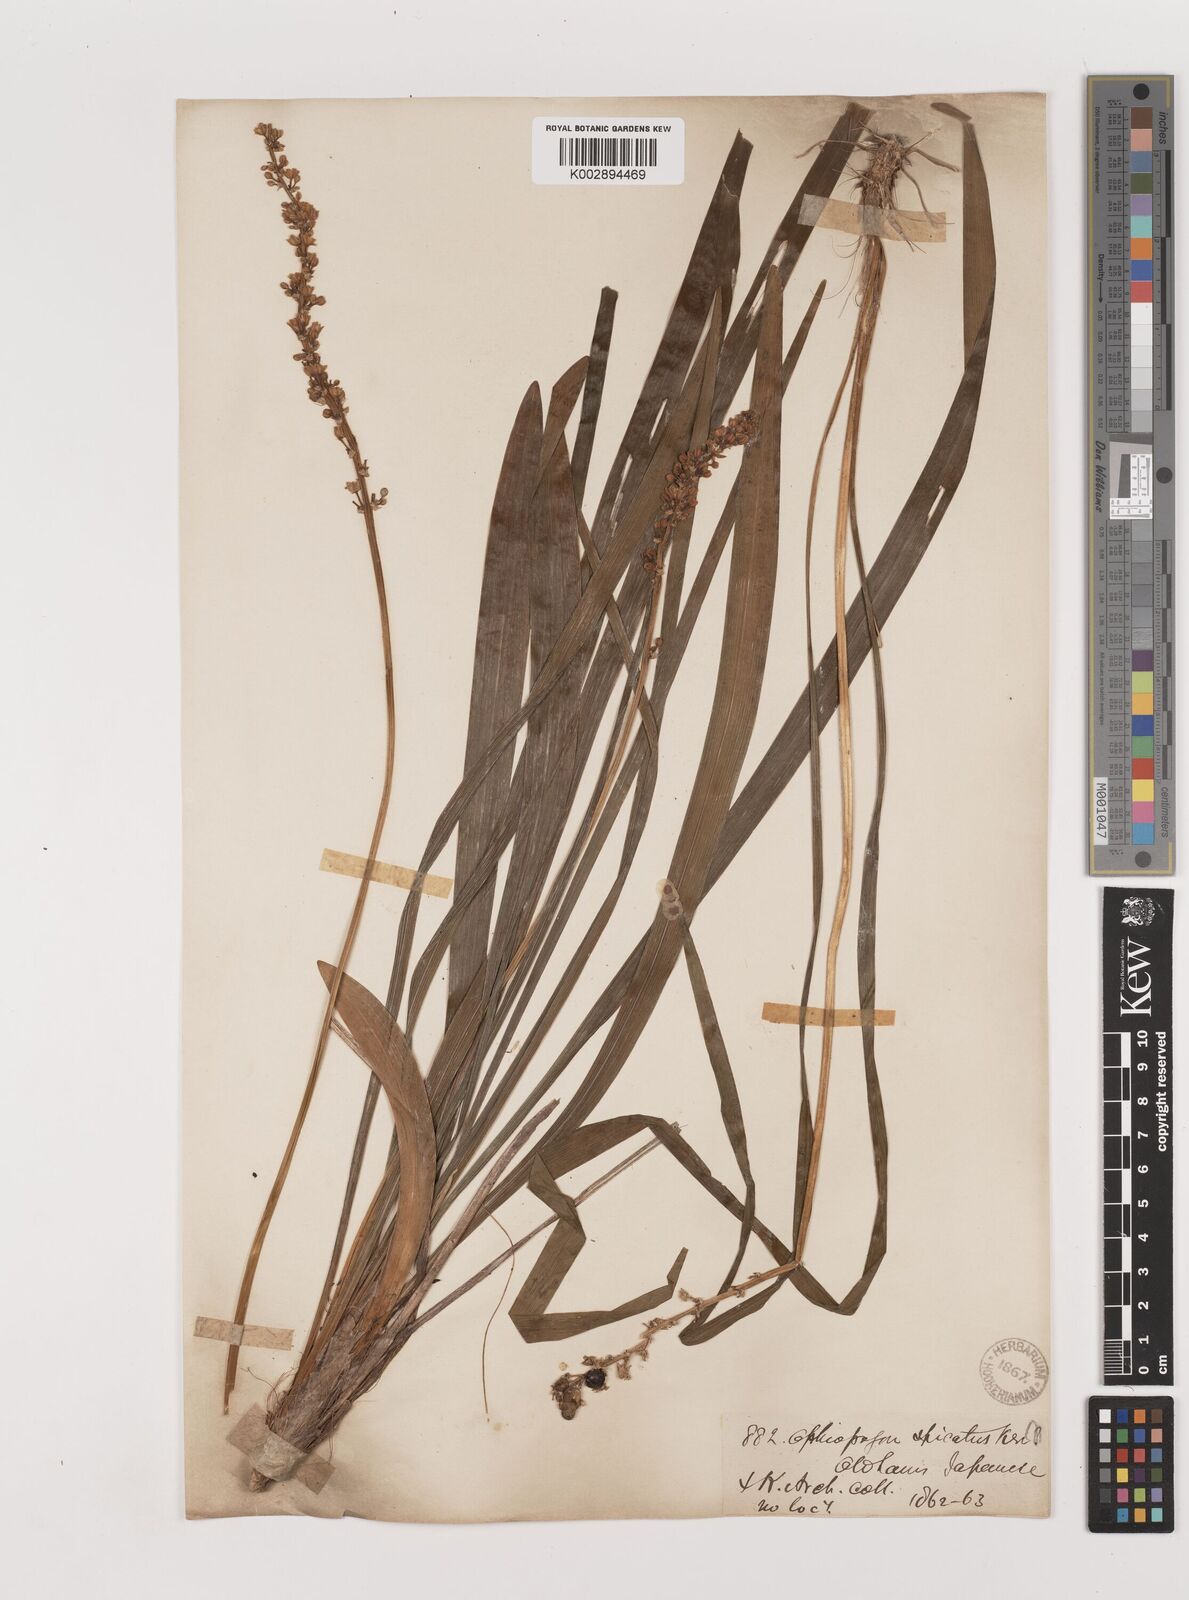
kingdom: Plantae
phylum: Tracheophyta
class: Liliopsida
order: Asparagales
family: Asparagaceae
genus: Liriope
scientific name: Liriope muscari
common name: Big blue lilyturf
